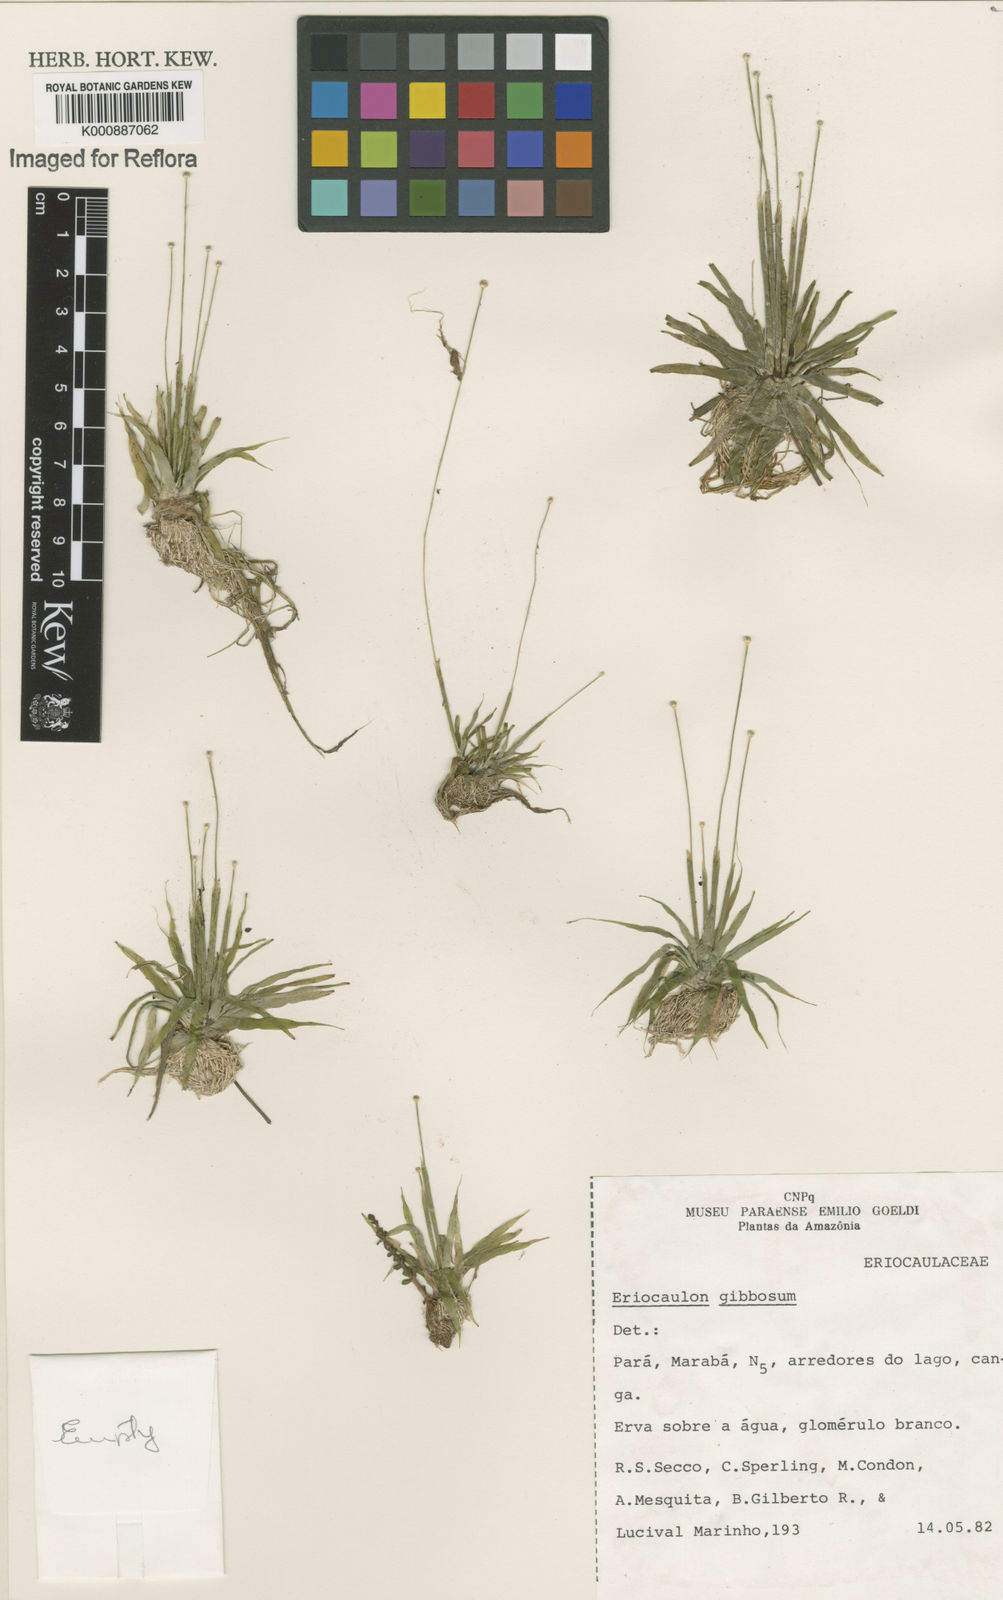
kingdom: Plantae
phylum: Tracheophyta
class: Liliopsida
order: Poales
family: Eriocaulaceae
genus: Eriocaulon
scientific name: Eriocaulon
